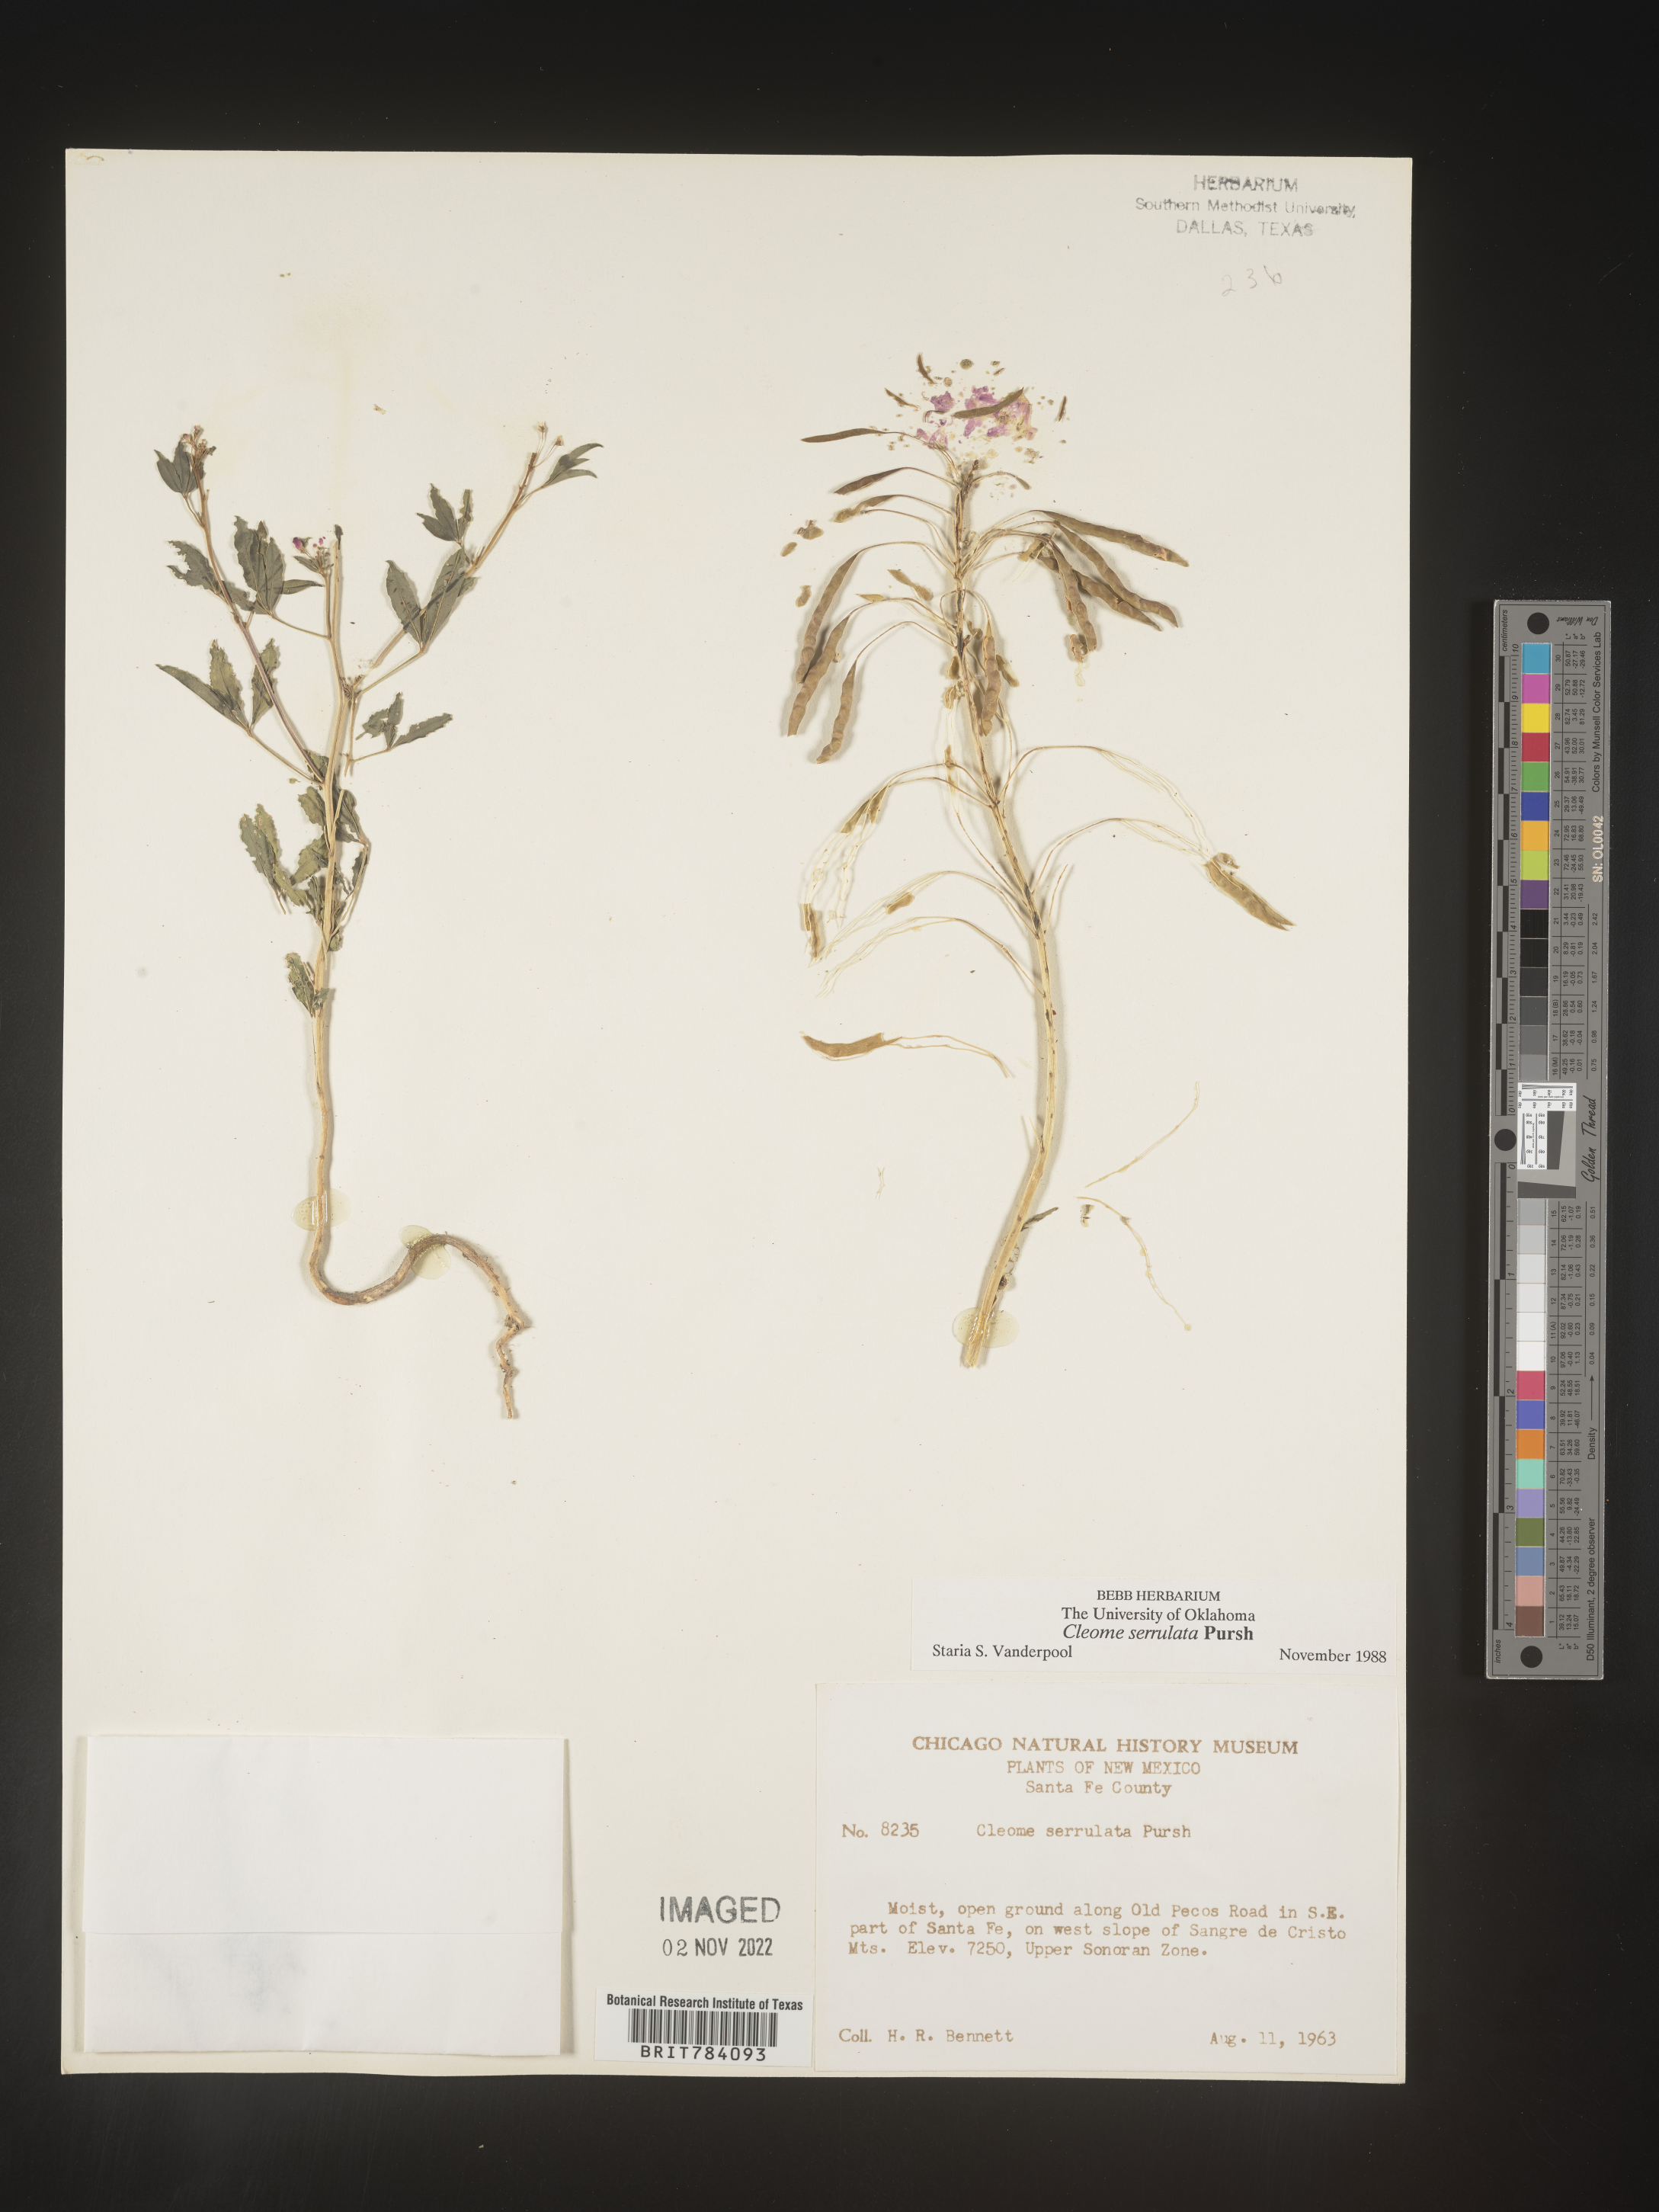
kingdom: Plantae
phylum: Tracheophyta
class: Magnoliopsida
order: Brassicales
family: Cleomaceae
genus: Cleomella
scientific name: Cleomella serrulata
